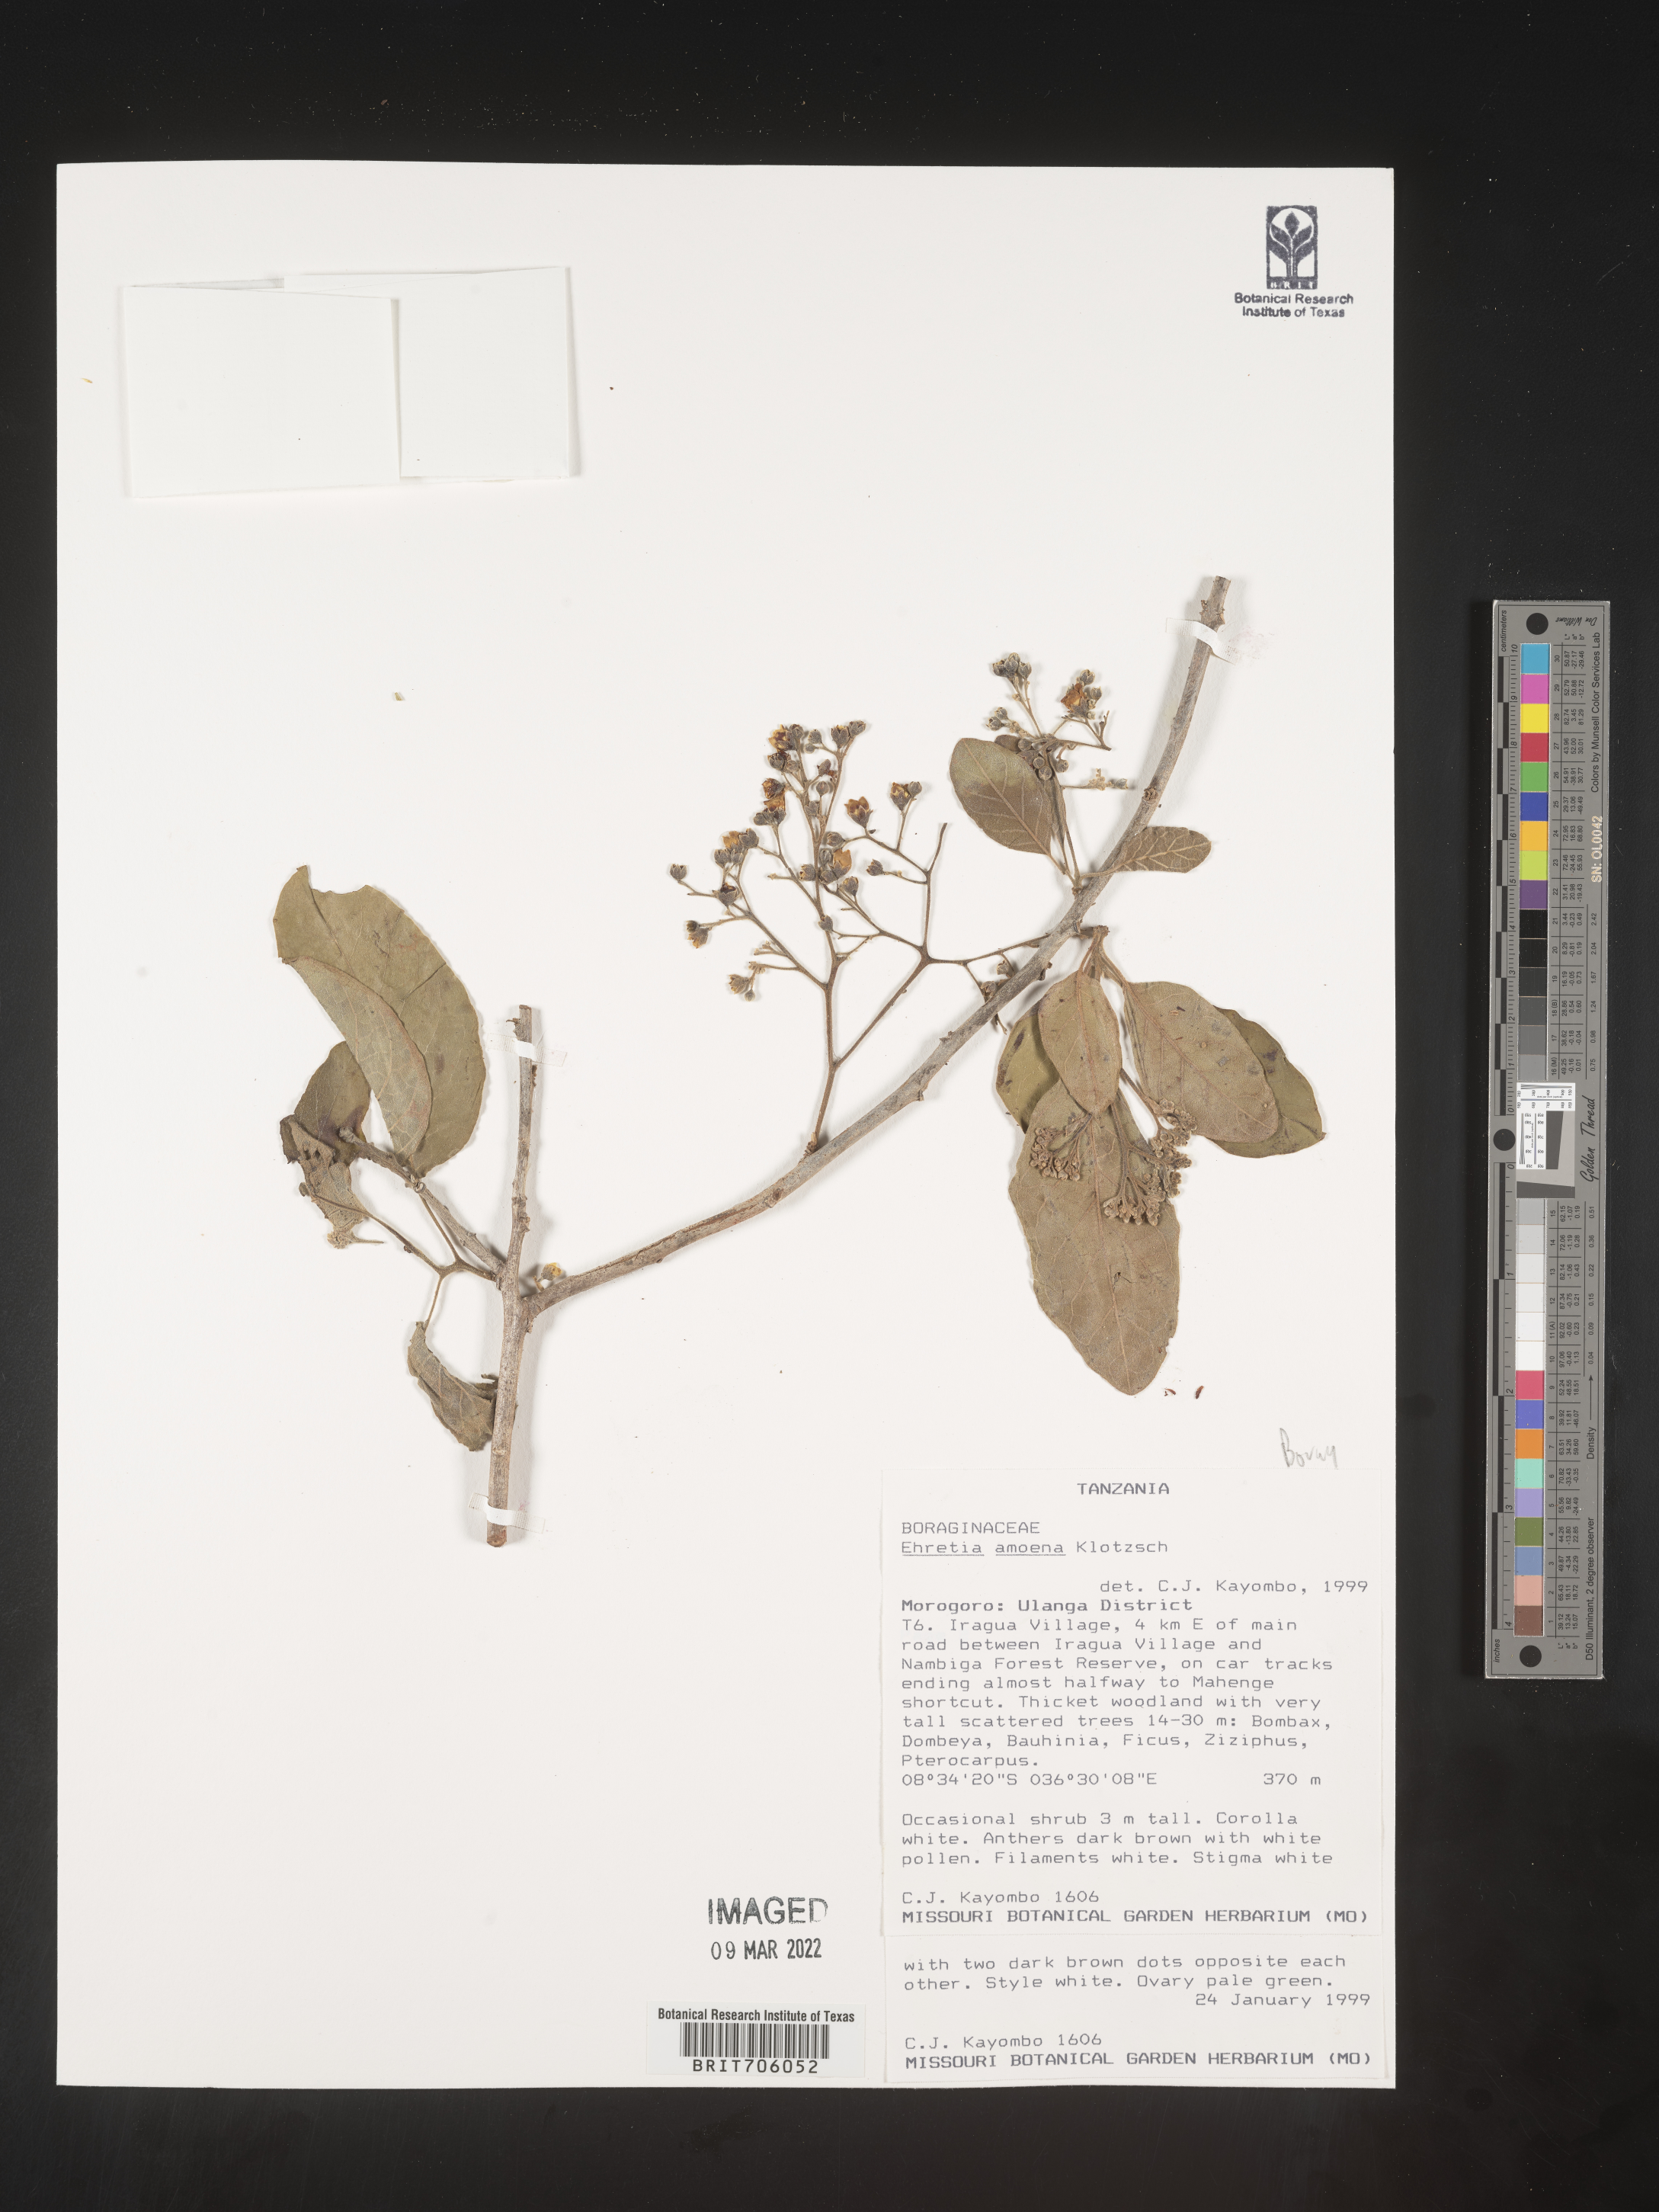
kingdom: Plantae
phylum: Tracheophyta
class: Magnoliopsida
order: Boraginales
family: Ehretiaceae
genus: Ehretia
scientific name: Ehretia
